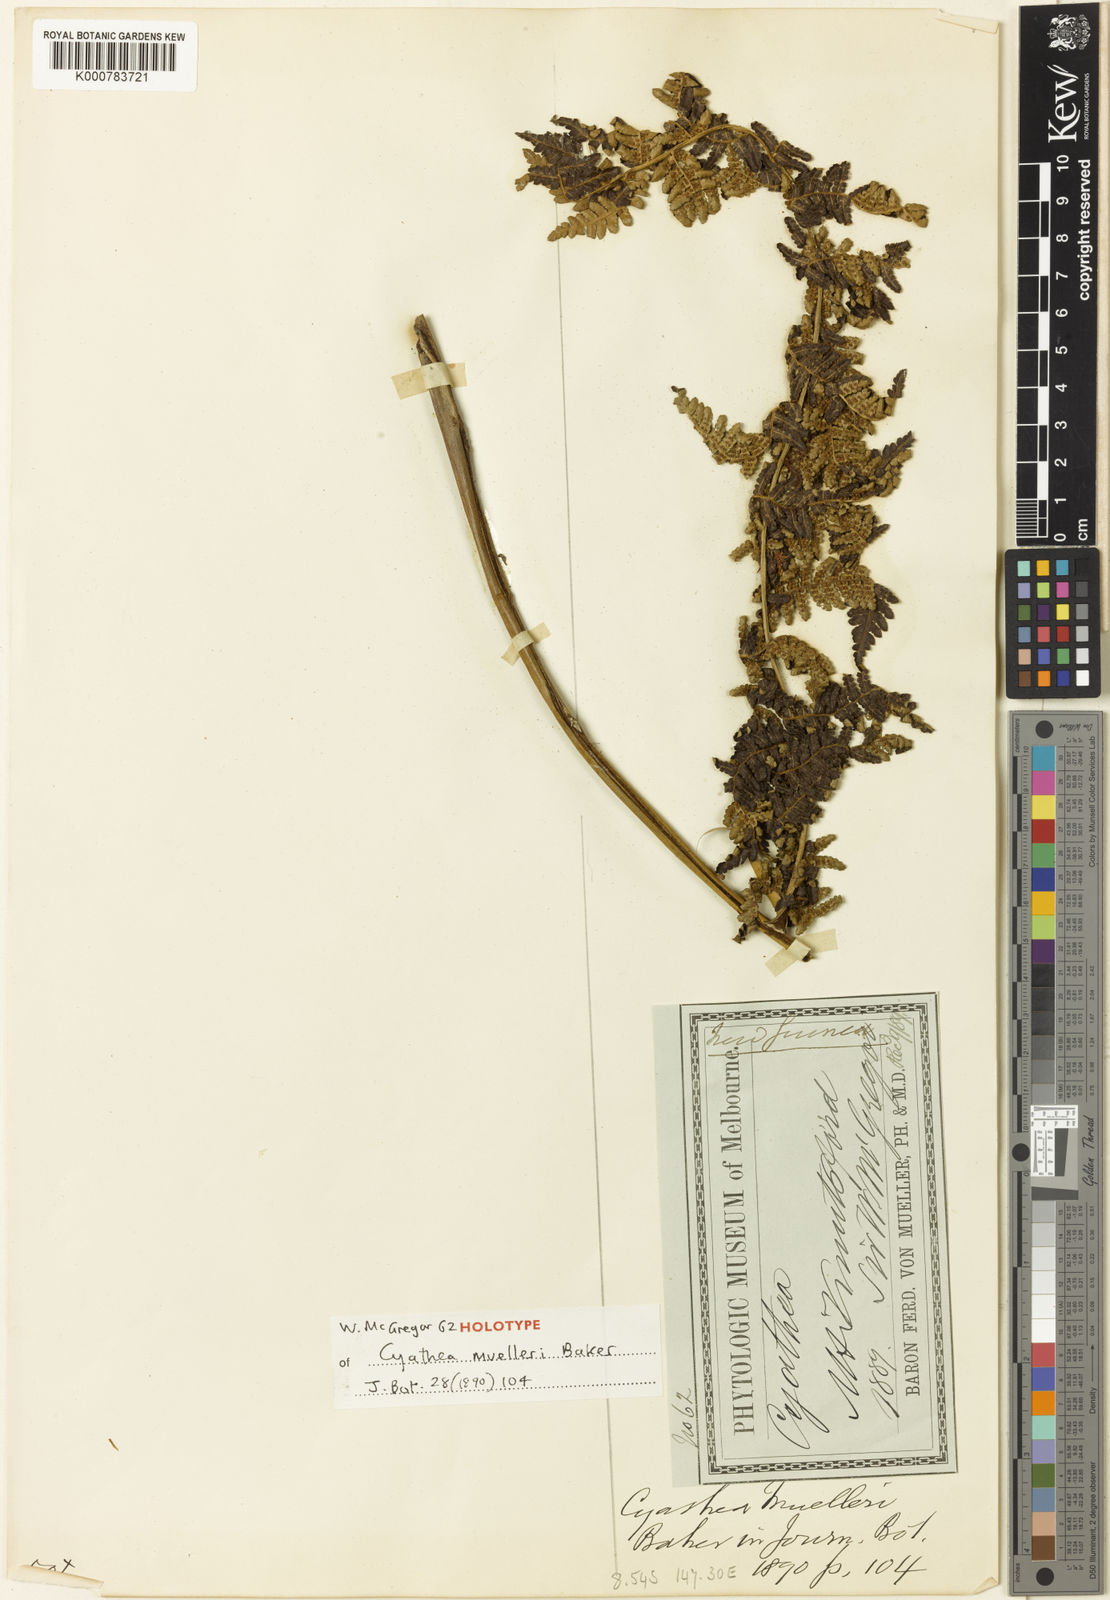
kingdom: Plantae
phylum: Tracheophyta
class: Polypodiopsida
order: Cyatheales
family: Cyatheaceae
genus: Alsophila
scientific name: Alsophila muelleri
